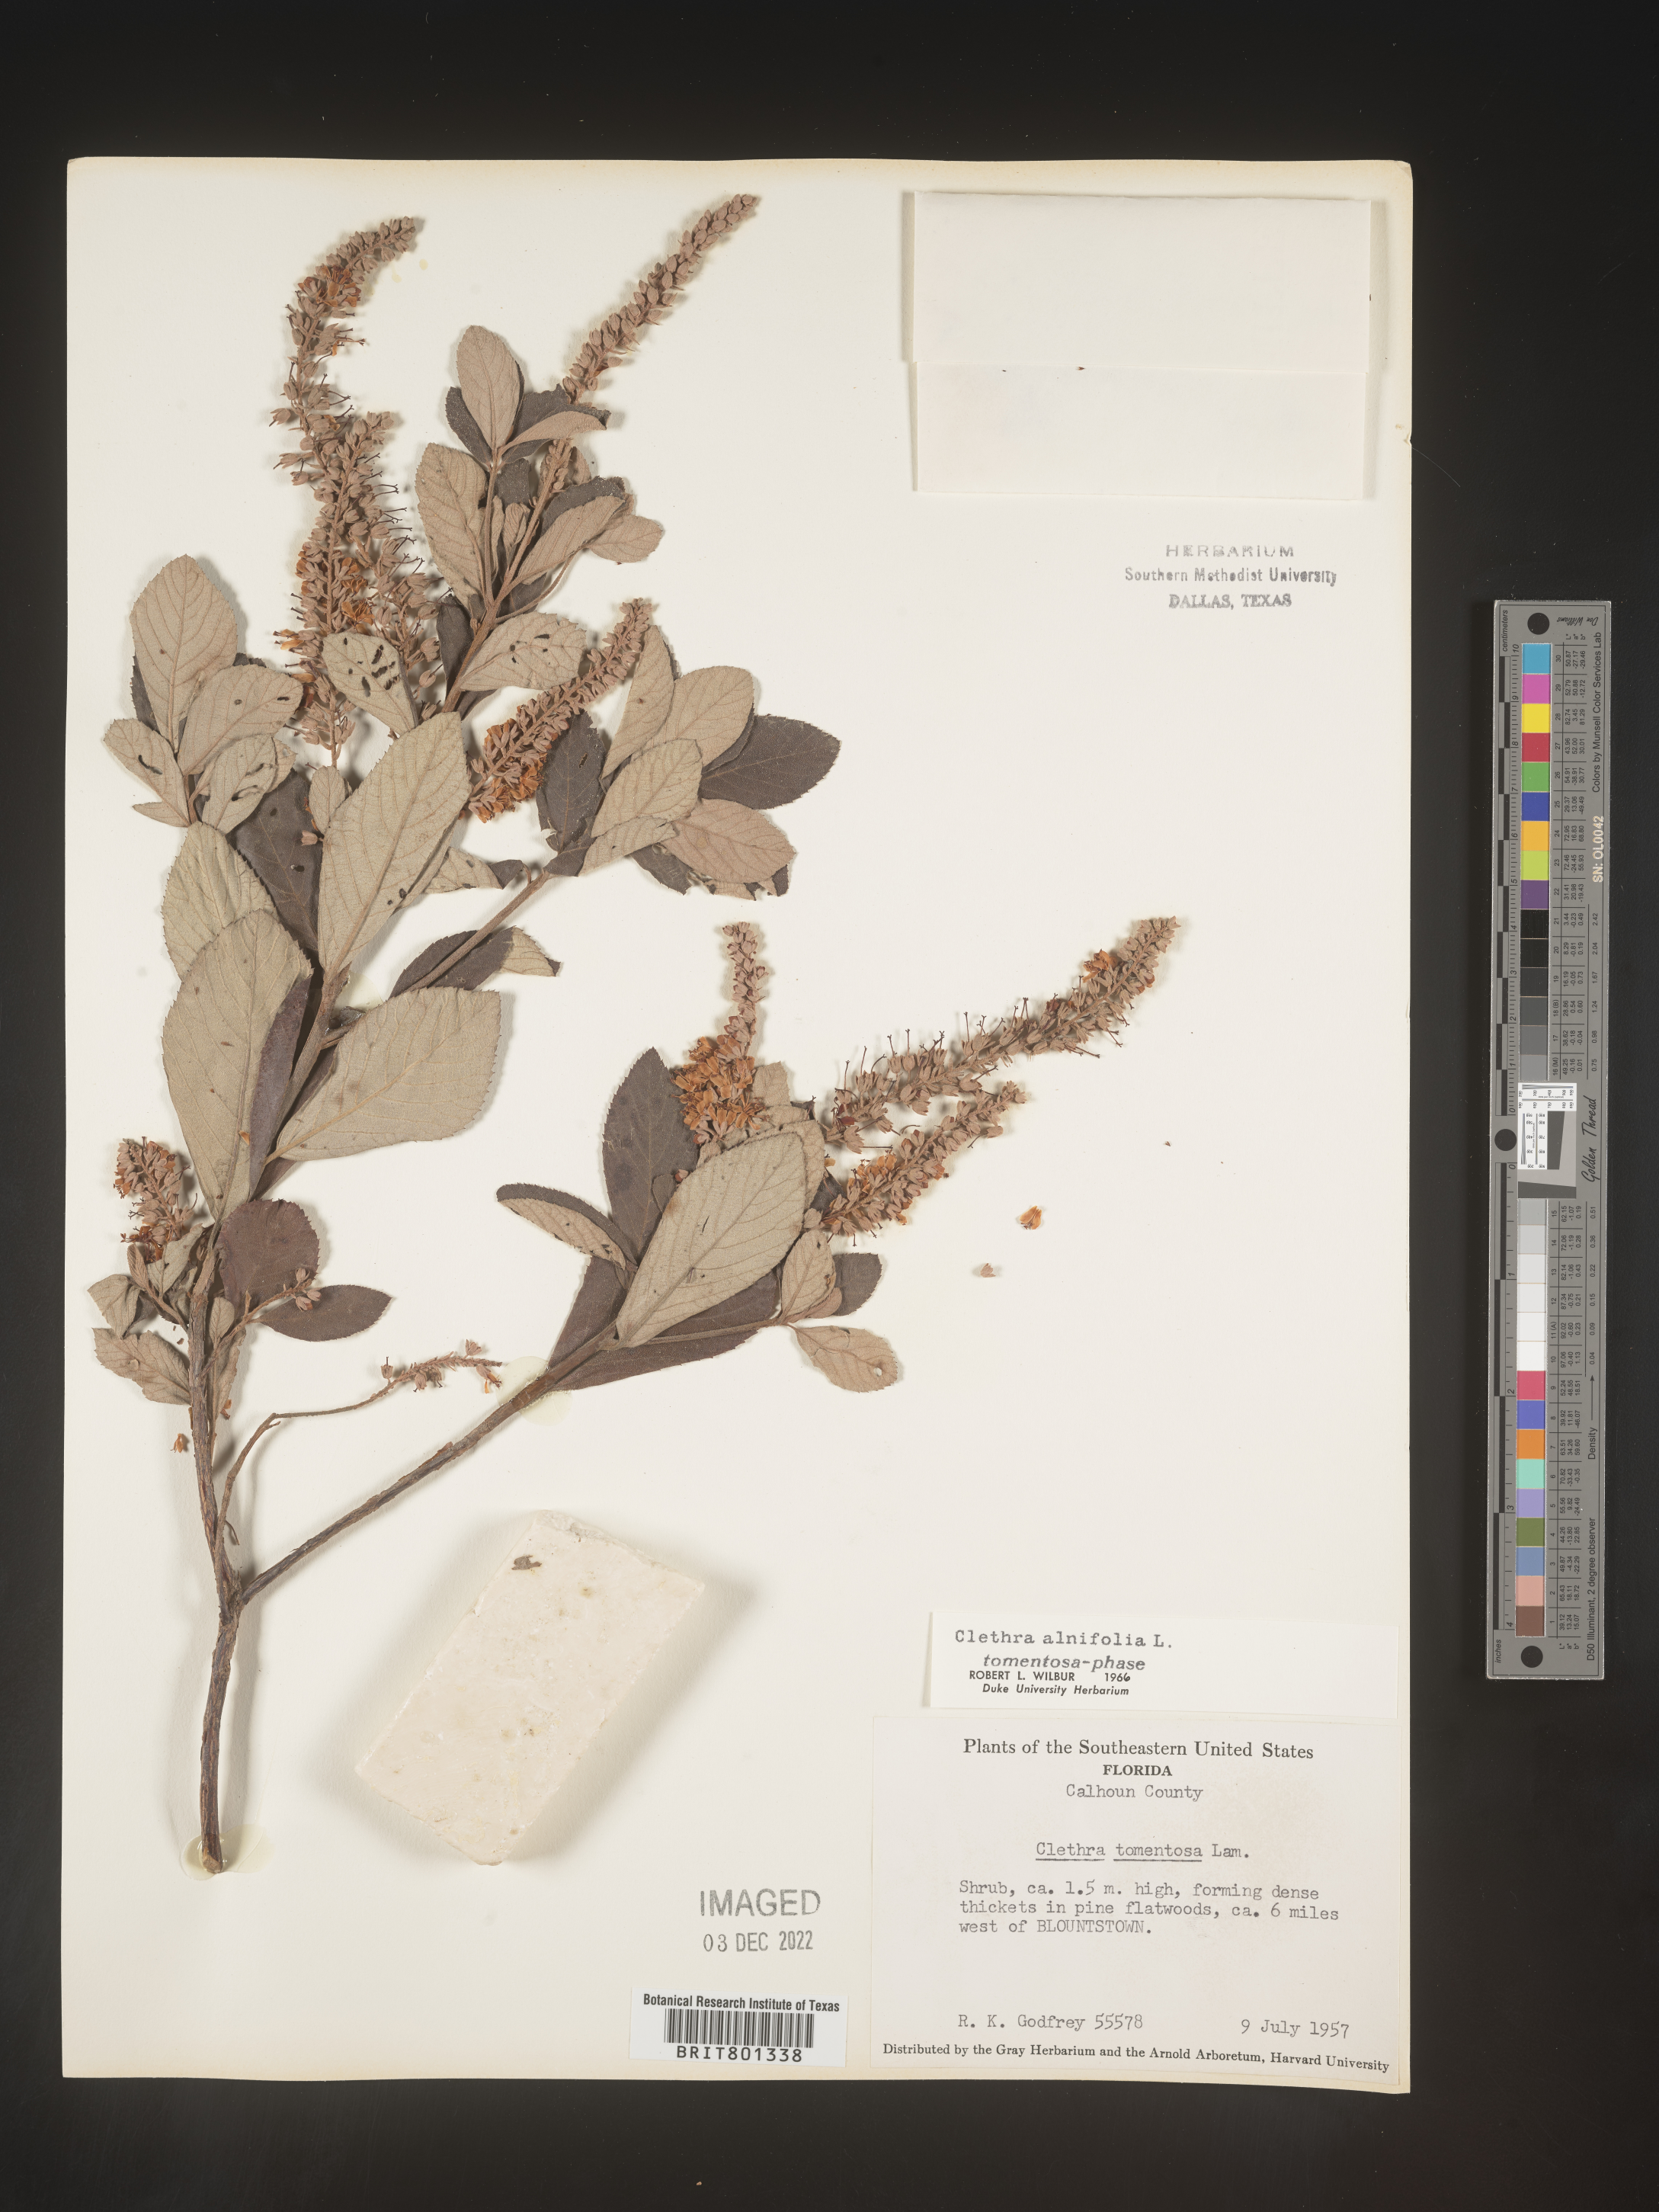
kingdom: Plantae
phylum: Tracheophyta
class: Magnoliopsida
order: Ericales
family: Clethraceae
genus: Clethra
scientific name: Clethra alnifolia
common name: Sweet pepperbush
